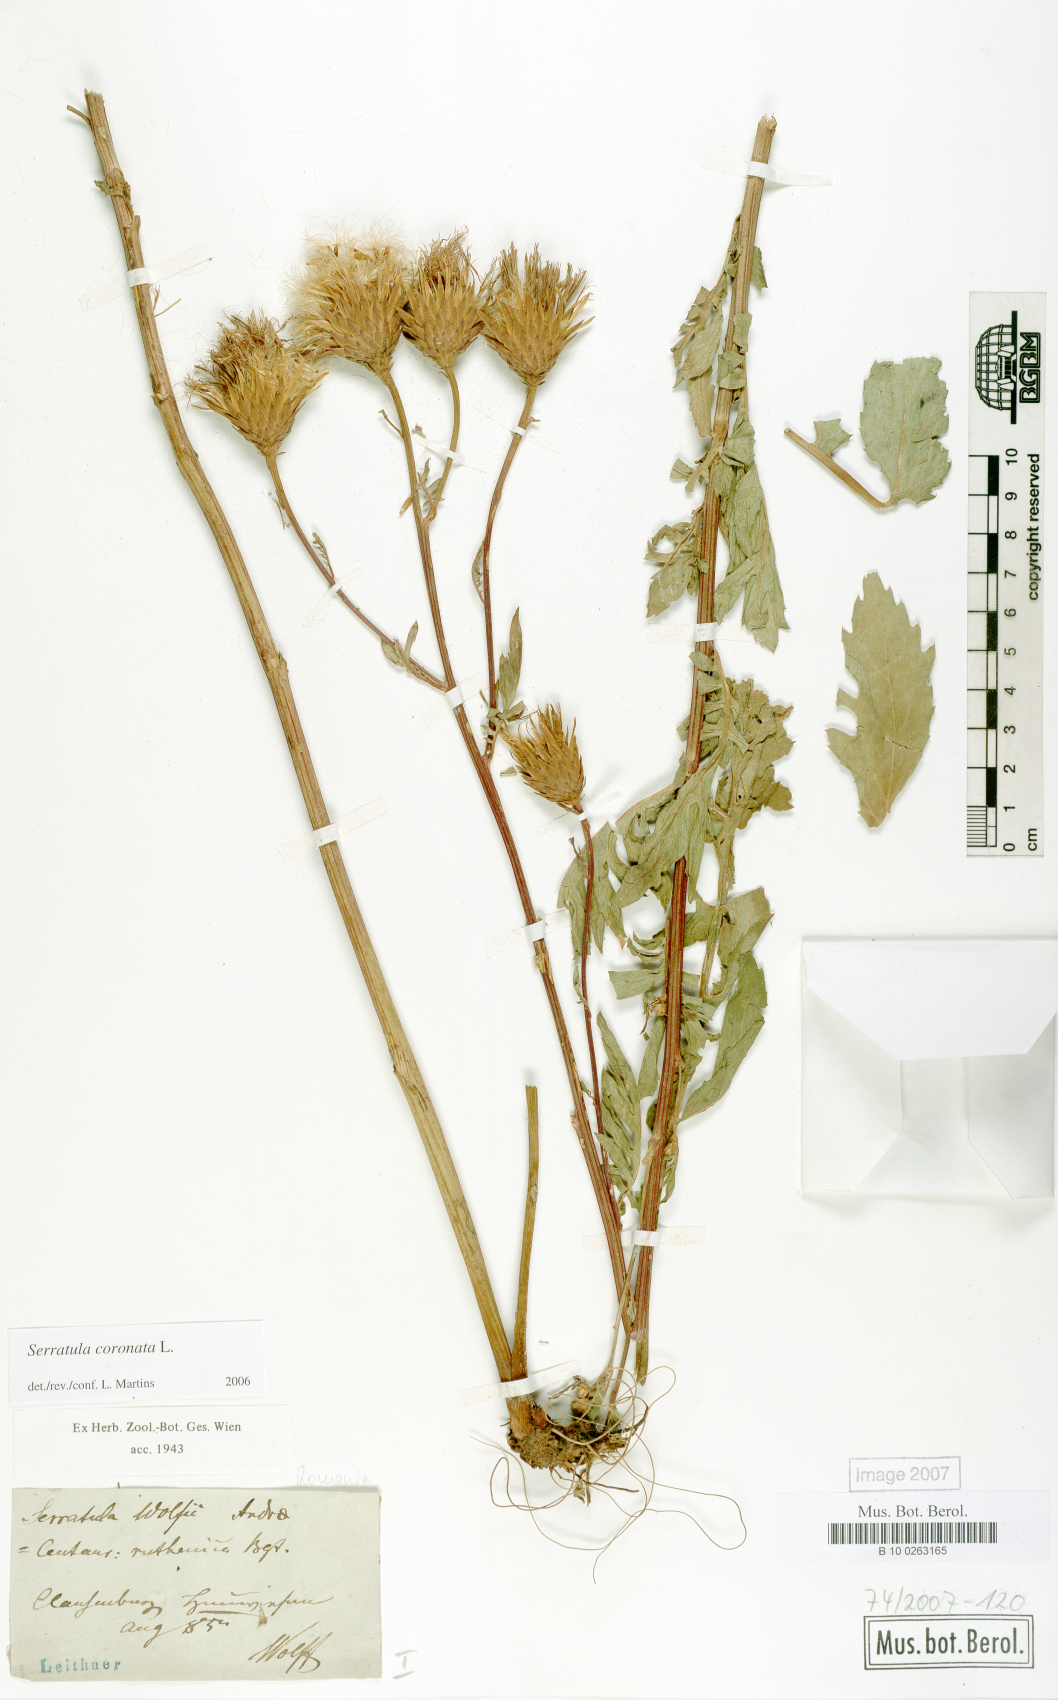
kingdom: Plantae
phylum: Tracheophyta
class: Magnoliopsida
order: Asterales
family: Asteraceae
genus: Serratula
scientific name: Serratula coronata
